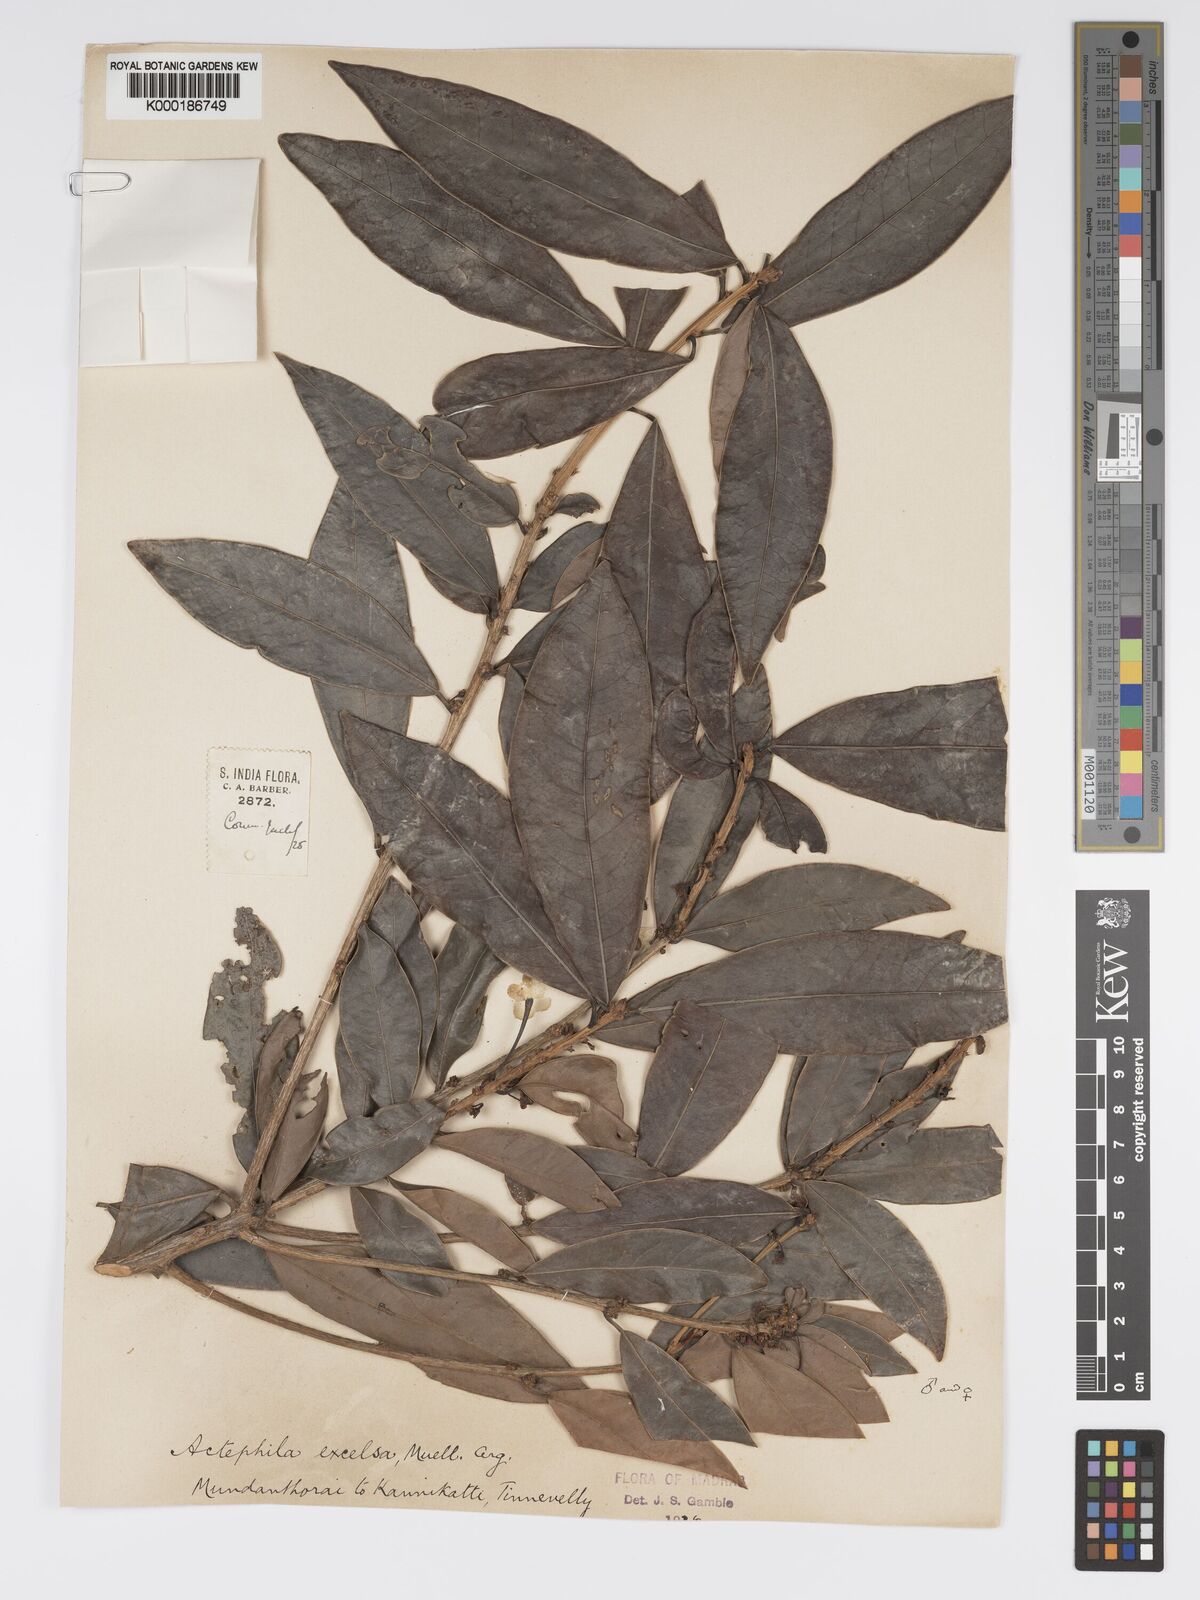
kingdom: Plantae
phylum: Tracheophyta
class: Magnoliopsida
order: Malpighiales
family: Phyllanthaceae
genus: Actephila
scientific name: Actephila excelsa
